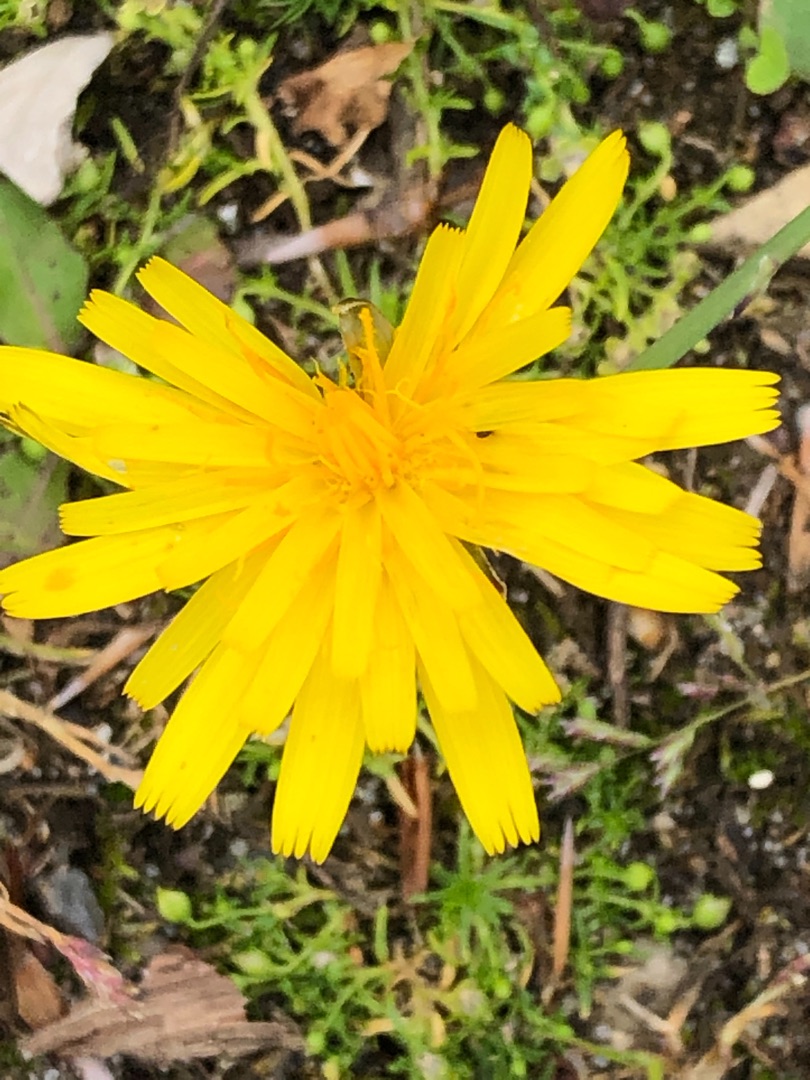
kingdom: Plantae
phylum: Tracheophyta
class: Magnoliopsida
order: Asterales
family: Asteraceae
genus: Hypochaeris
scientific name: Hypochaeris radicata
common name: Almindelig kongepen
